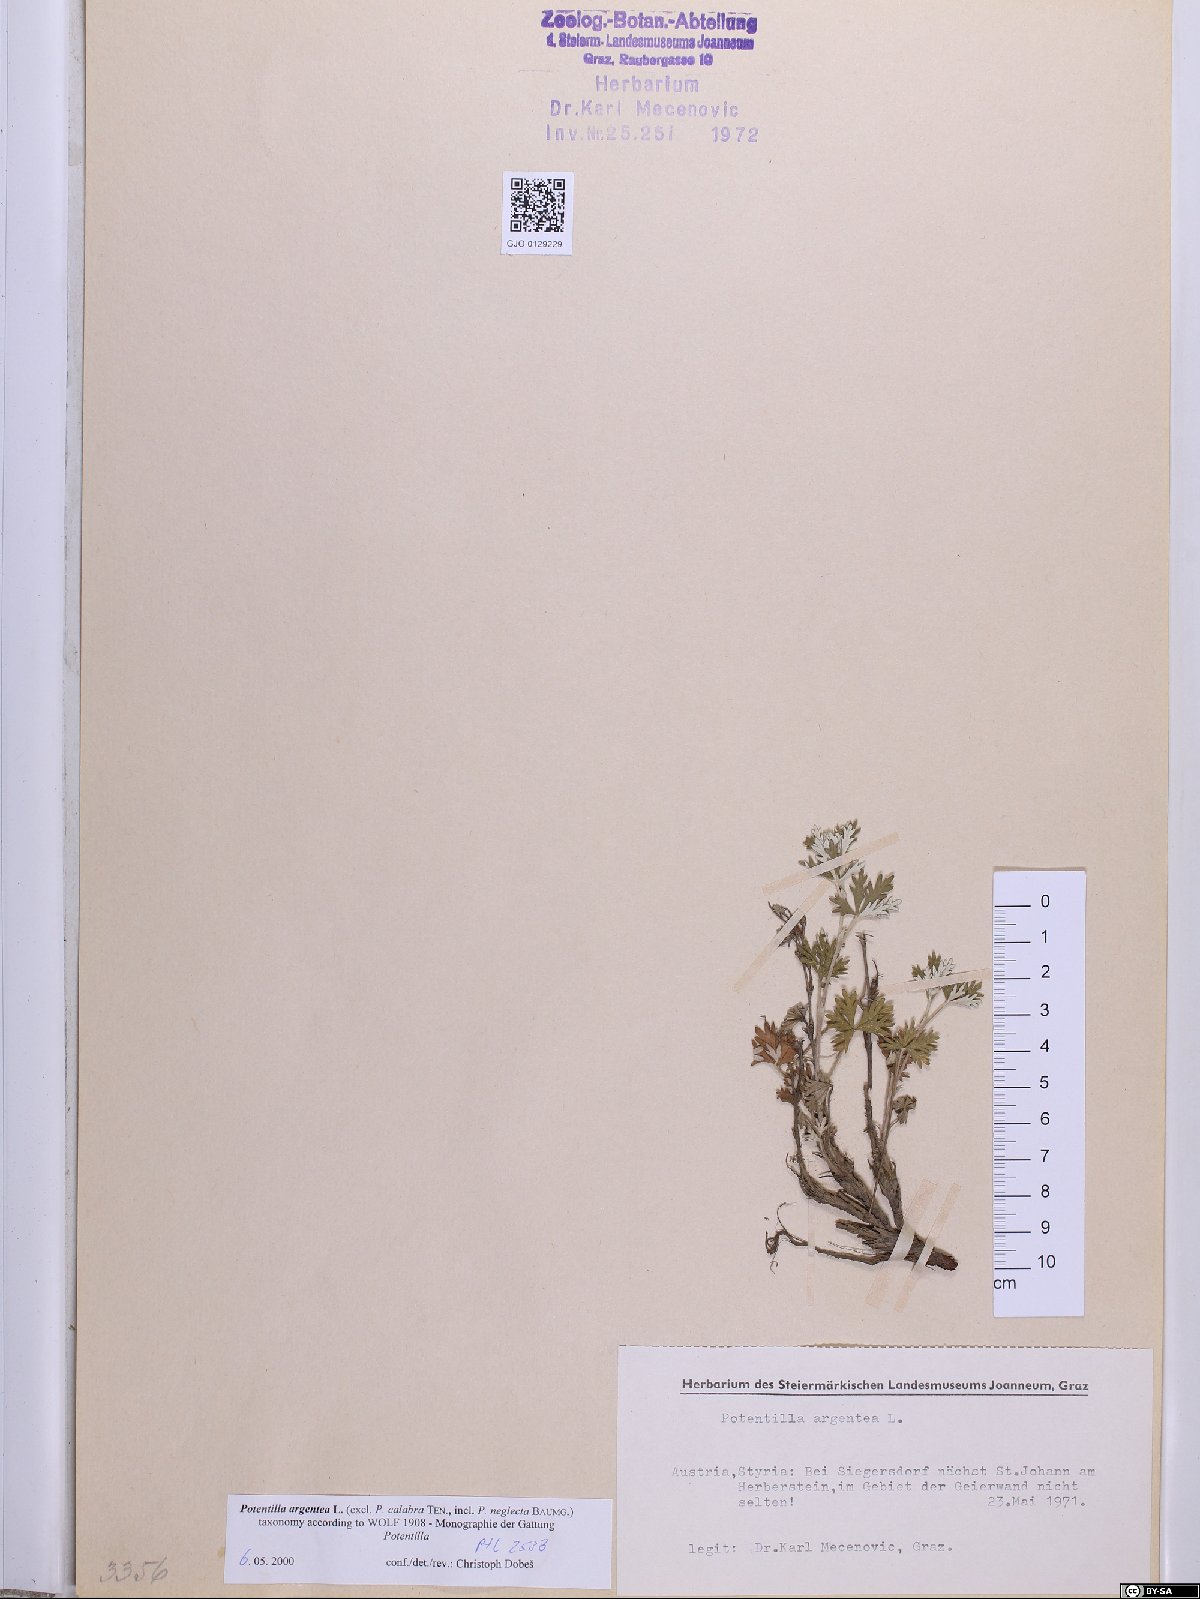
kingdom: Plantae
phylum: Tracheophyta
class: Magnoliopsida
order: Rosales
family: Rosaceae
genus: Potentilla
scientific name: Potentilla argentea
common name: Hoary cinquefoil
